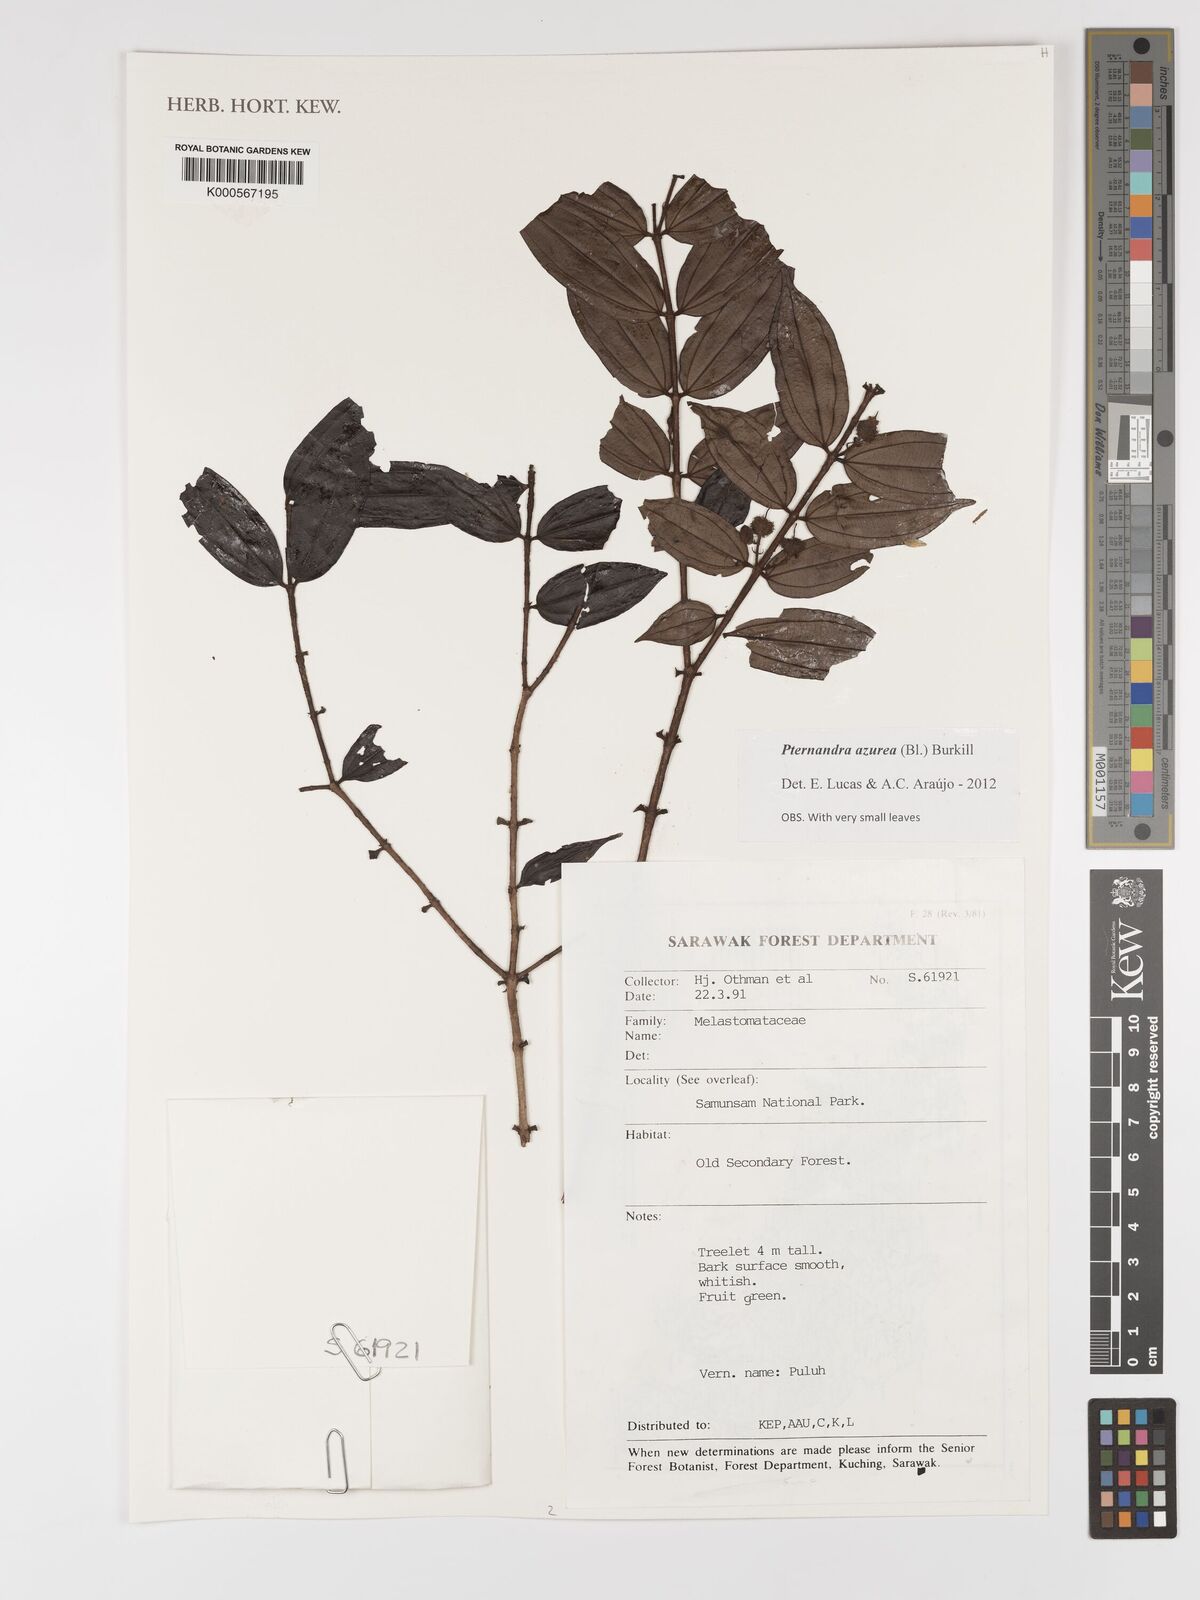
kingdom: Plantae
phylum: Tracheophyta
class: Magnoliopsida
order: Myrtales
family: Melastomataceae
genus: Pternandra
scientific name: Pternandra azurea
